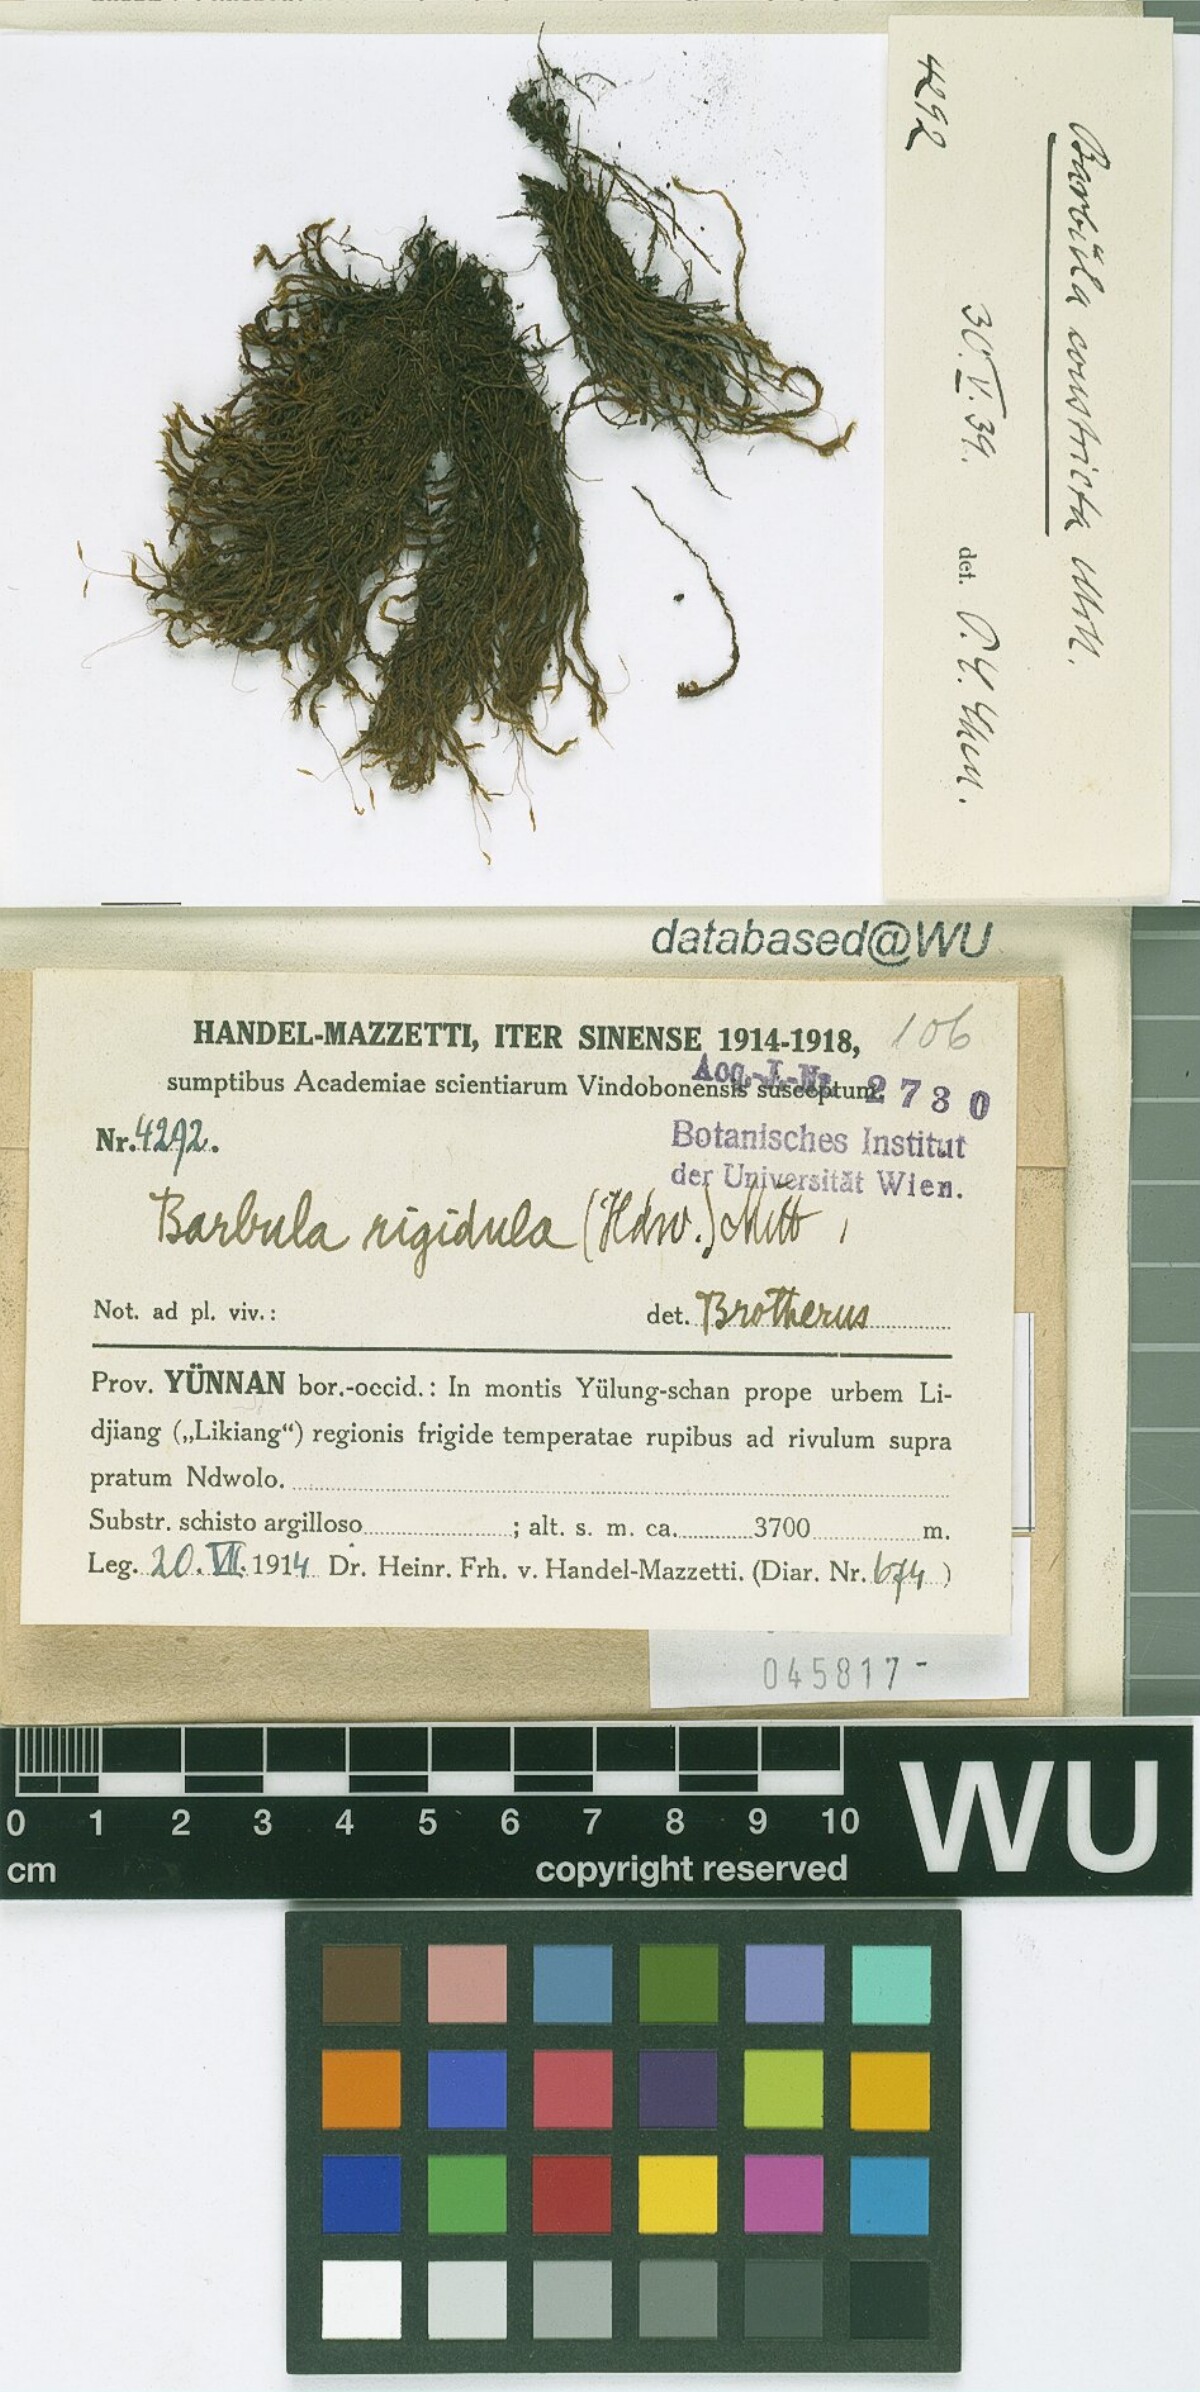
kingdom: Plantae
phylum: Bryophyta
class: Bryopsida
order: Pottiales
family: Pottiaceae
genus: Didymodon
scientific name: Didymodon constrictus
